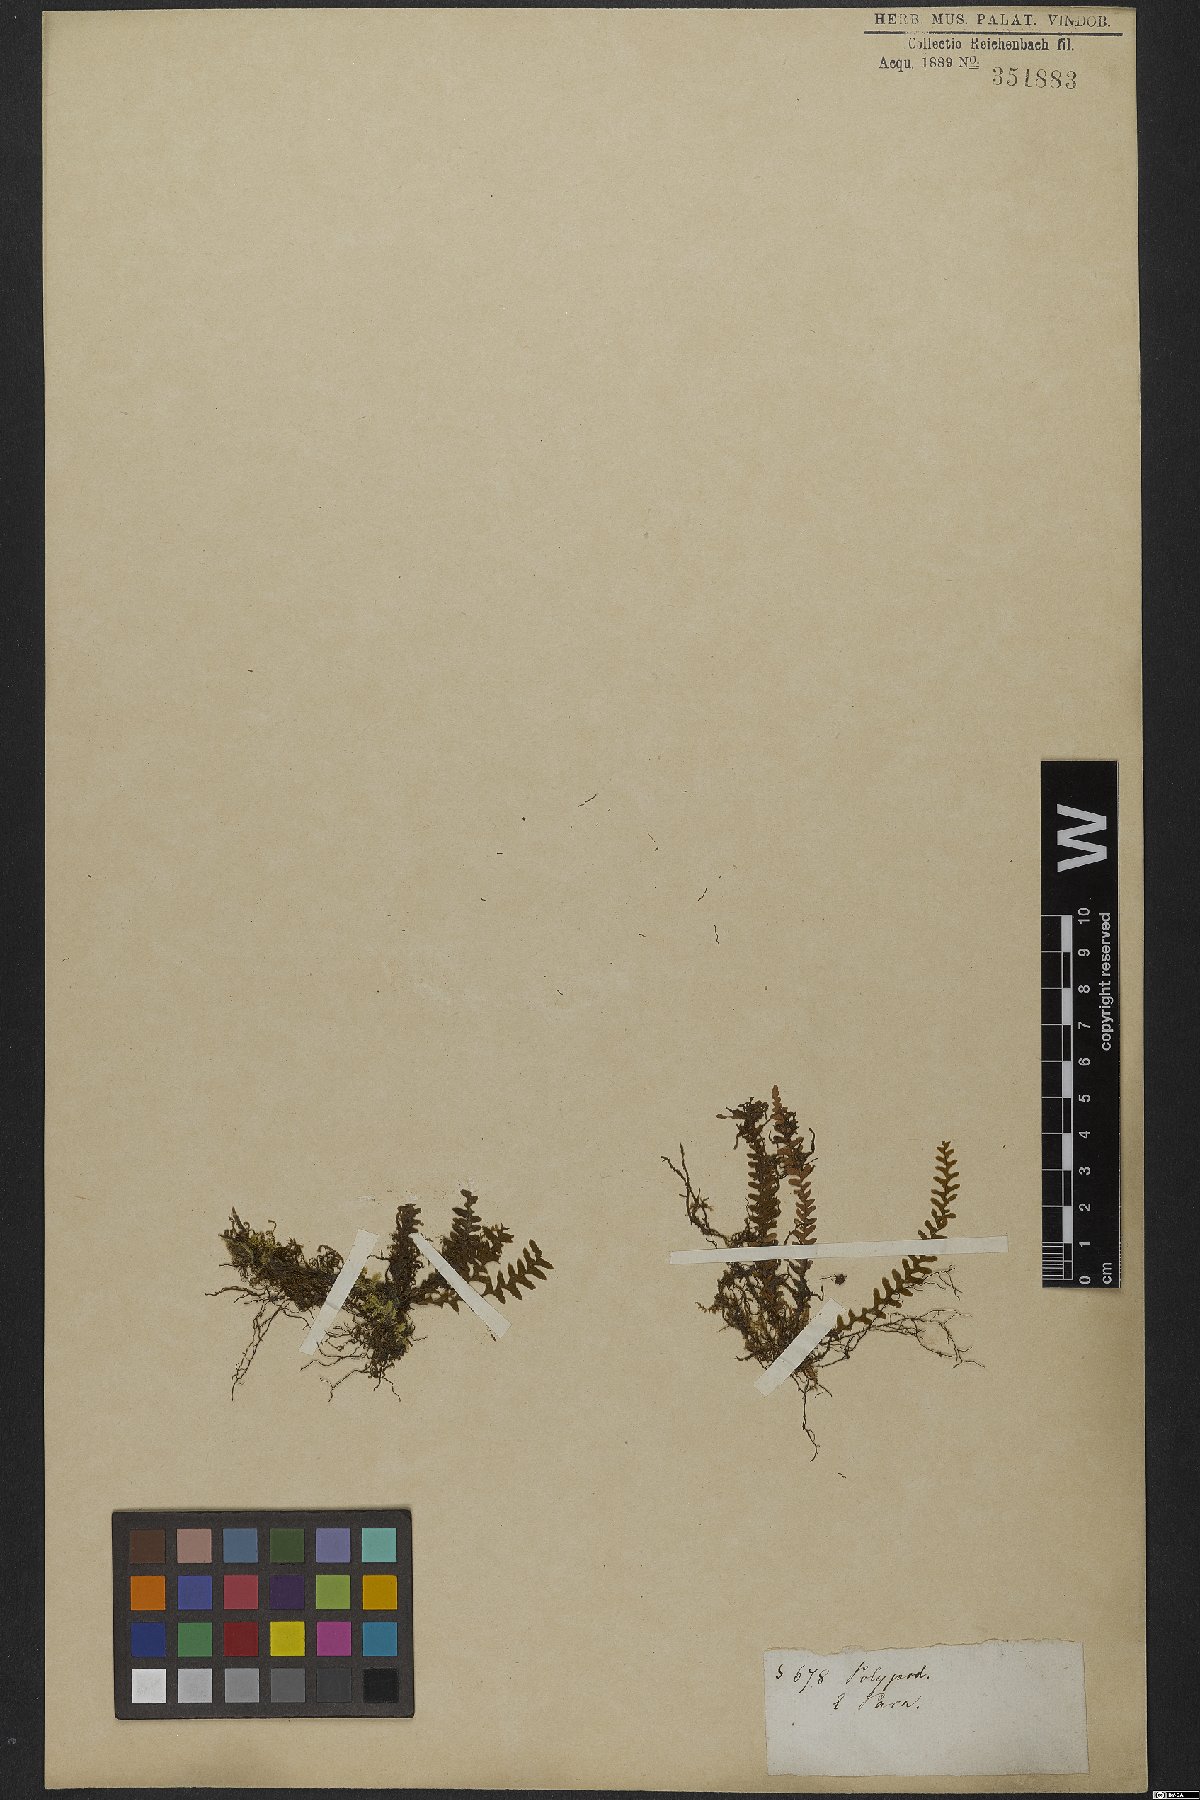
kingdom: Plantae
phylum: Tracheophyta
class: Polypodiopsida
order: Polypodiales
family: Polypodiaceae
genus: Ceradenia
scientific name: Ceradenia jungermannioides
